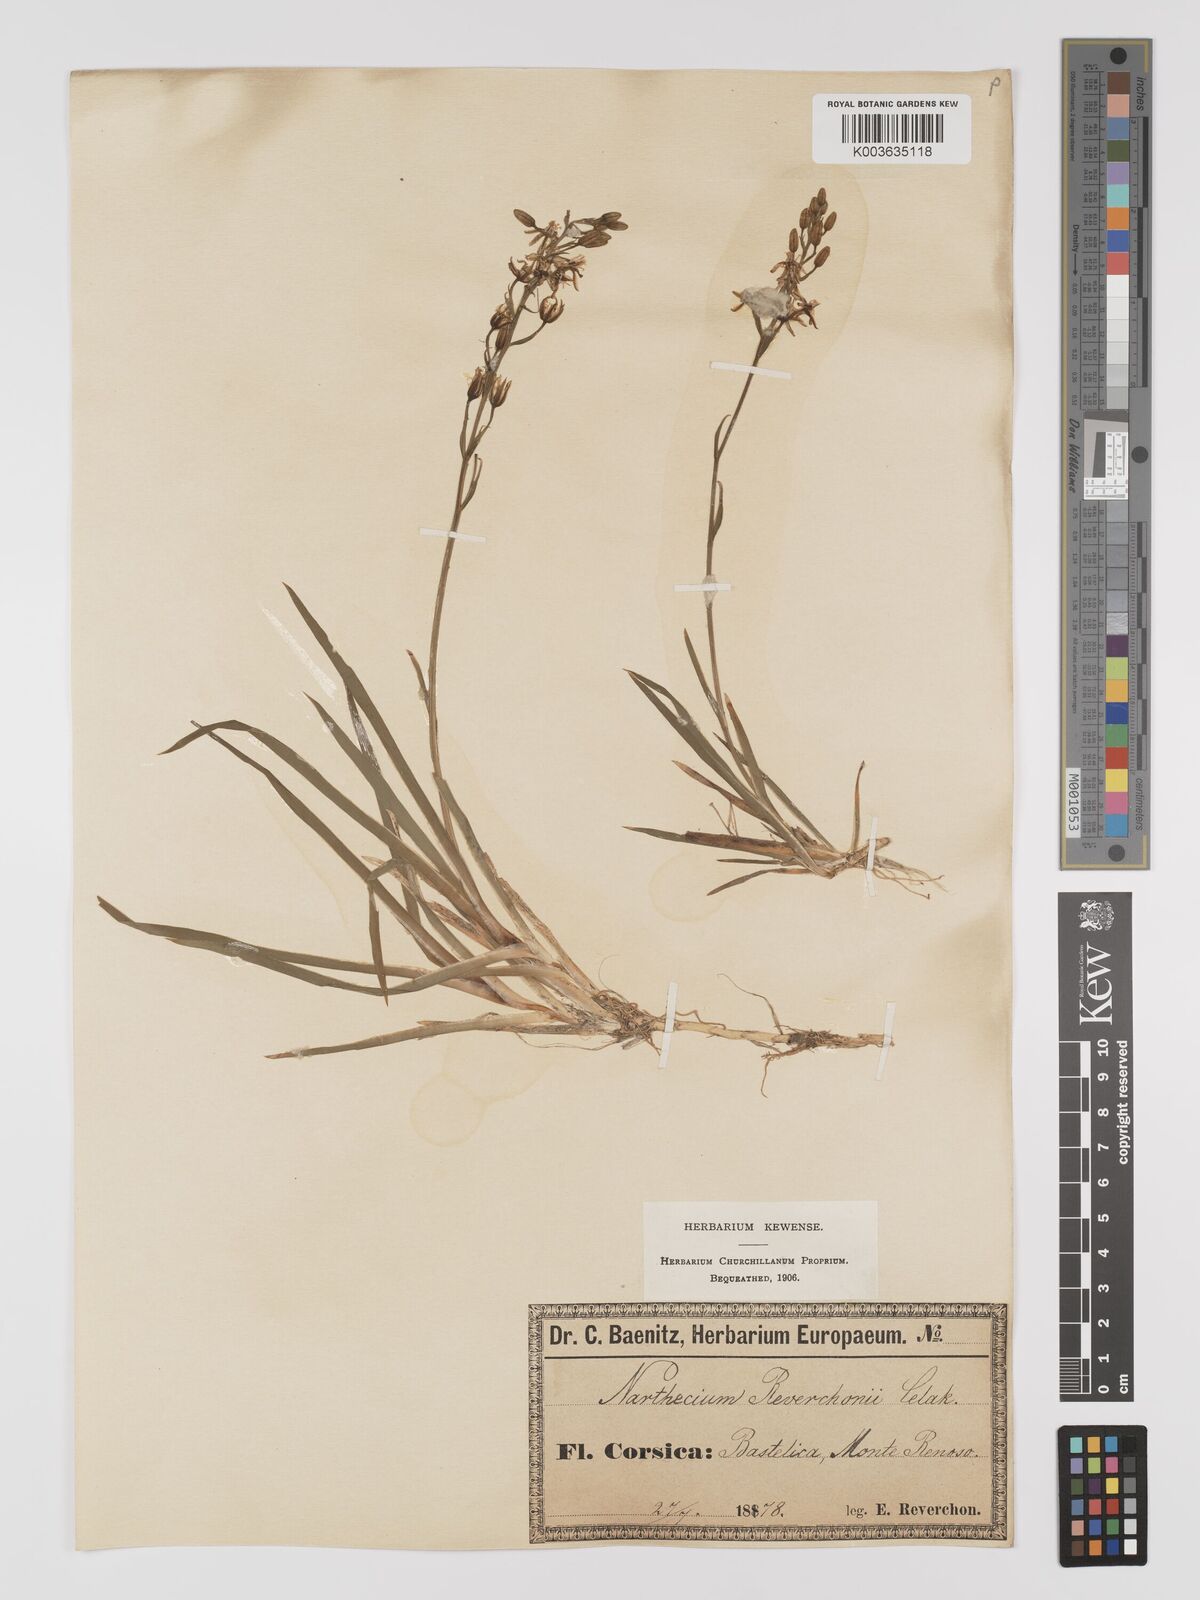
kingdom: Plantae
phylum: Tracheophyta
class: Liliopsida
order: Dioscoreales
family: Nartheciaceae
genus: Narthecium
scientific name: Narthecium reverchonii
